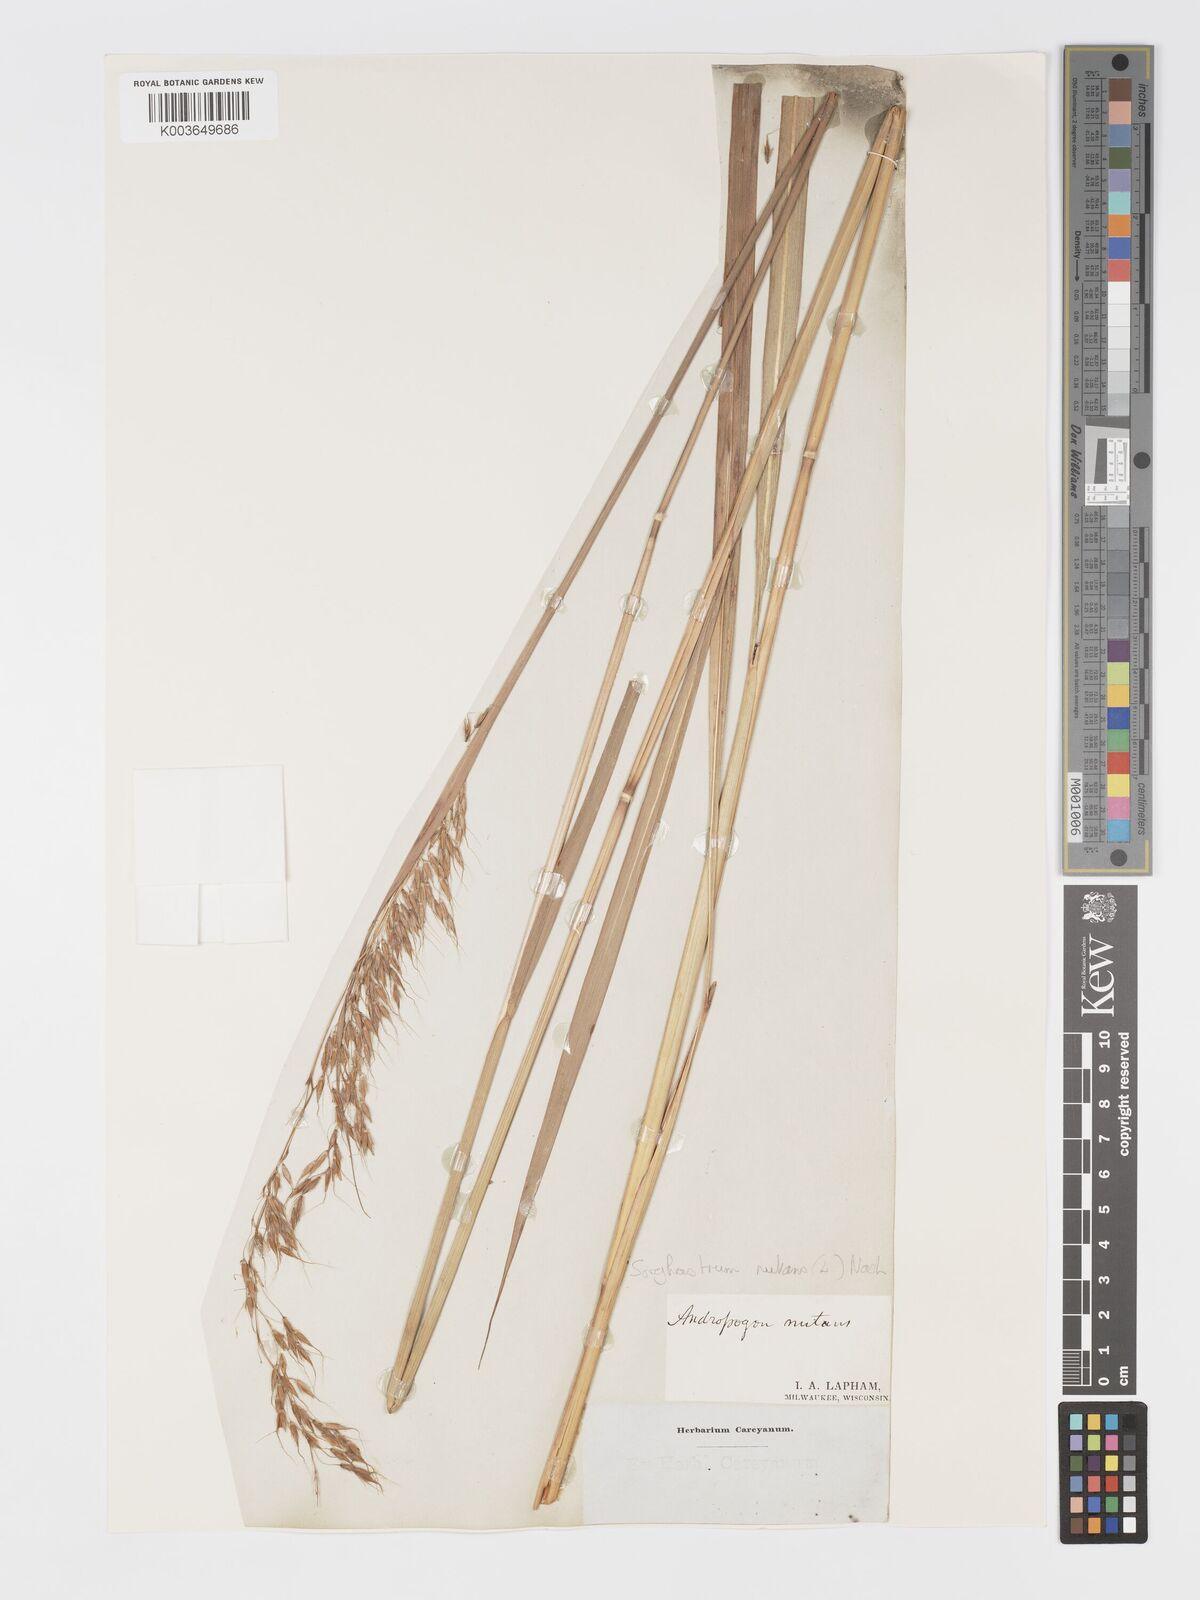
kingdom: Plantae
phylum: Tracheophyta
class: Liliopsida
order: Poales
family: Poaceae
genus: Sorghastrum
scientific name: Sorghastrum nutans
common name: Indian grass
